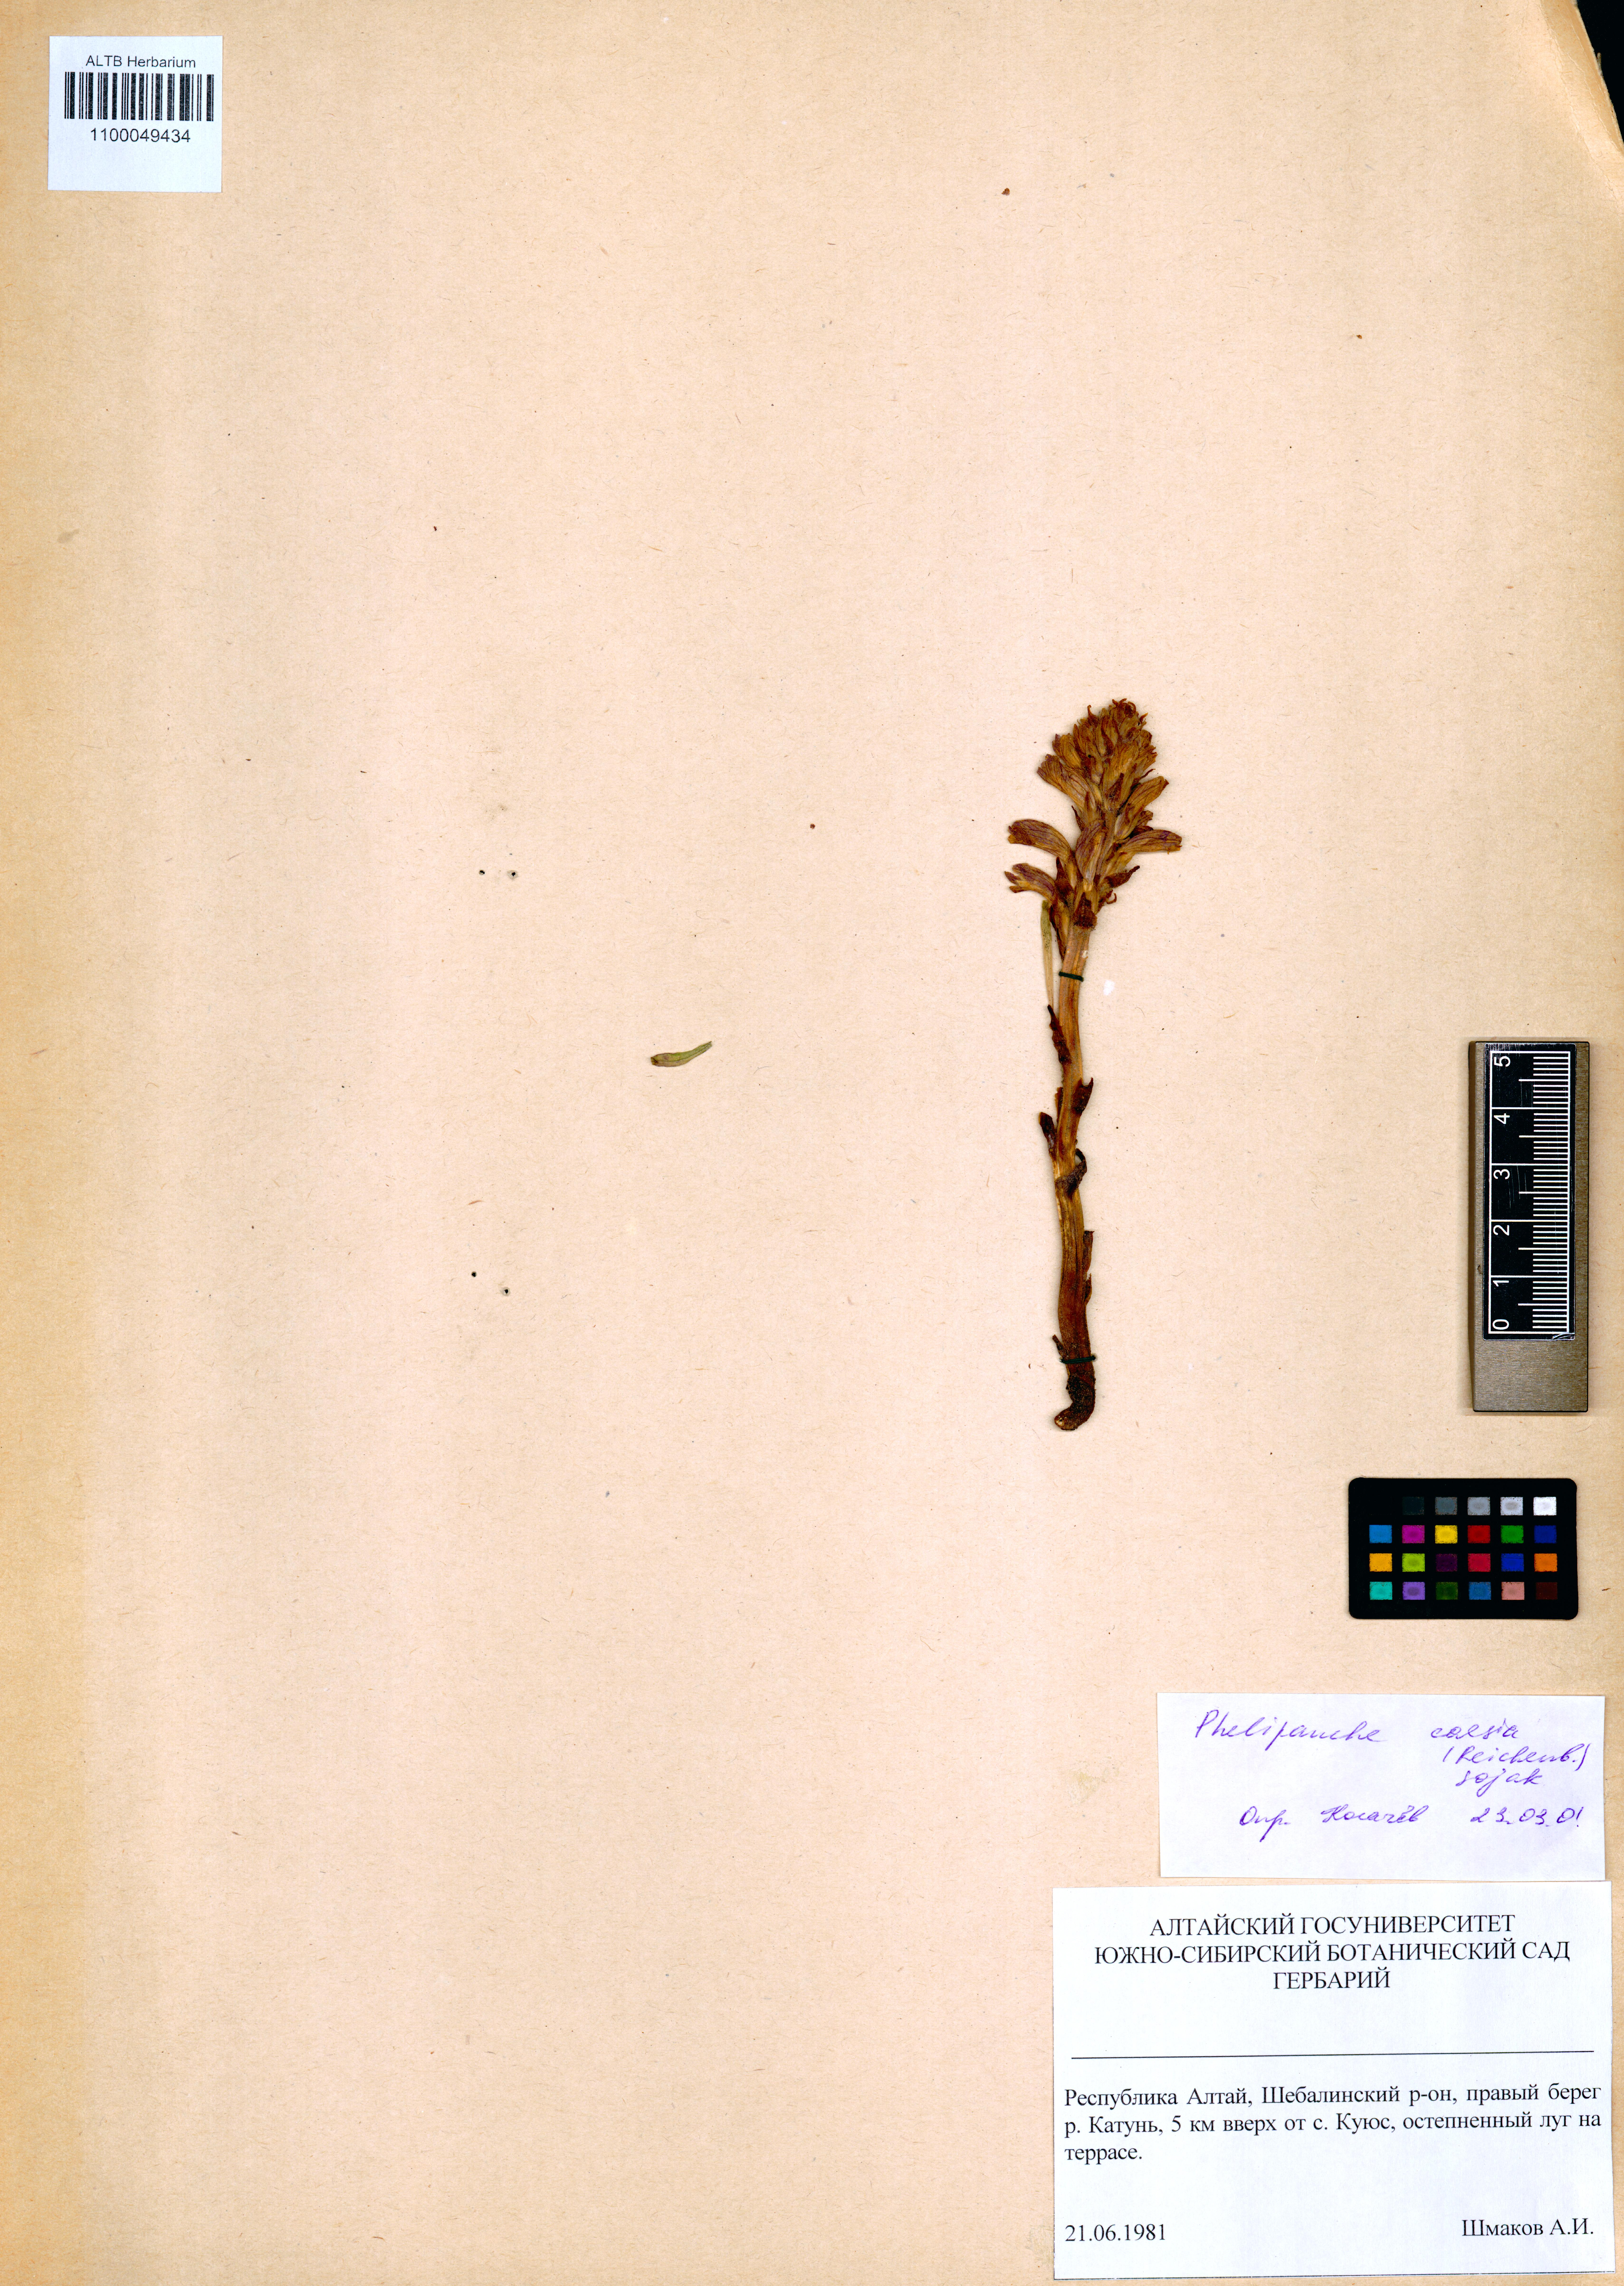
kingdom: Plantae
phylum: Tracheophyta
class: Magnoliopsida
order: Lamiales
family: Orobanchaceae
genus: Phelipanche
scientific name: Phelipanche caesia
